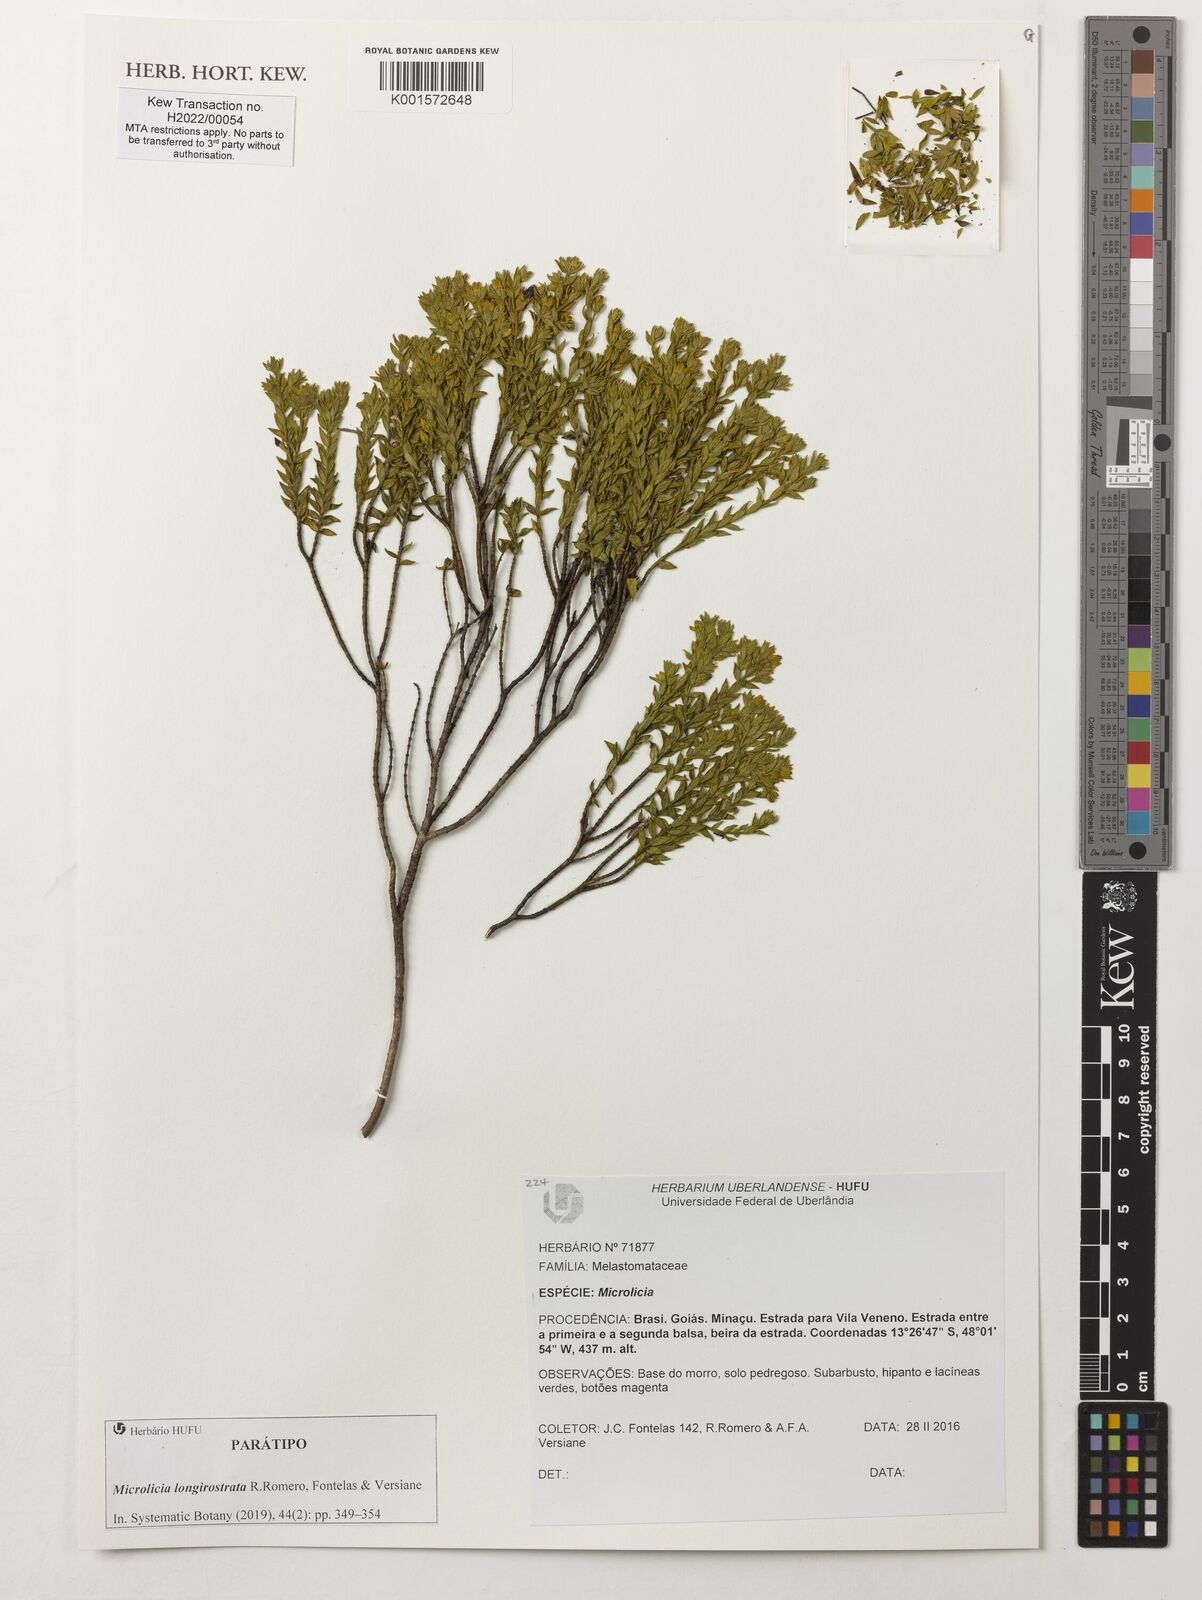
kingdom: Plantae
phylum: Tracheophyta
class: Magnoliopsida
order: Myrtales
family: Melastomataceae
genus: Microlicia
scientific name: Microlicia longirostrata
